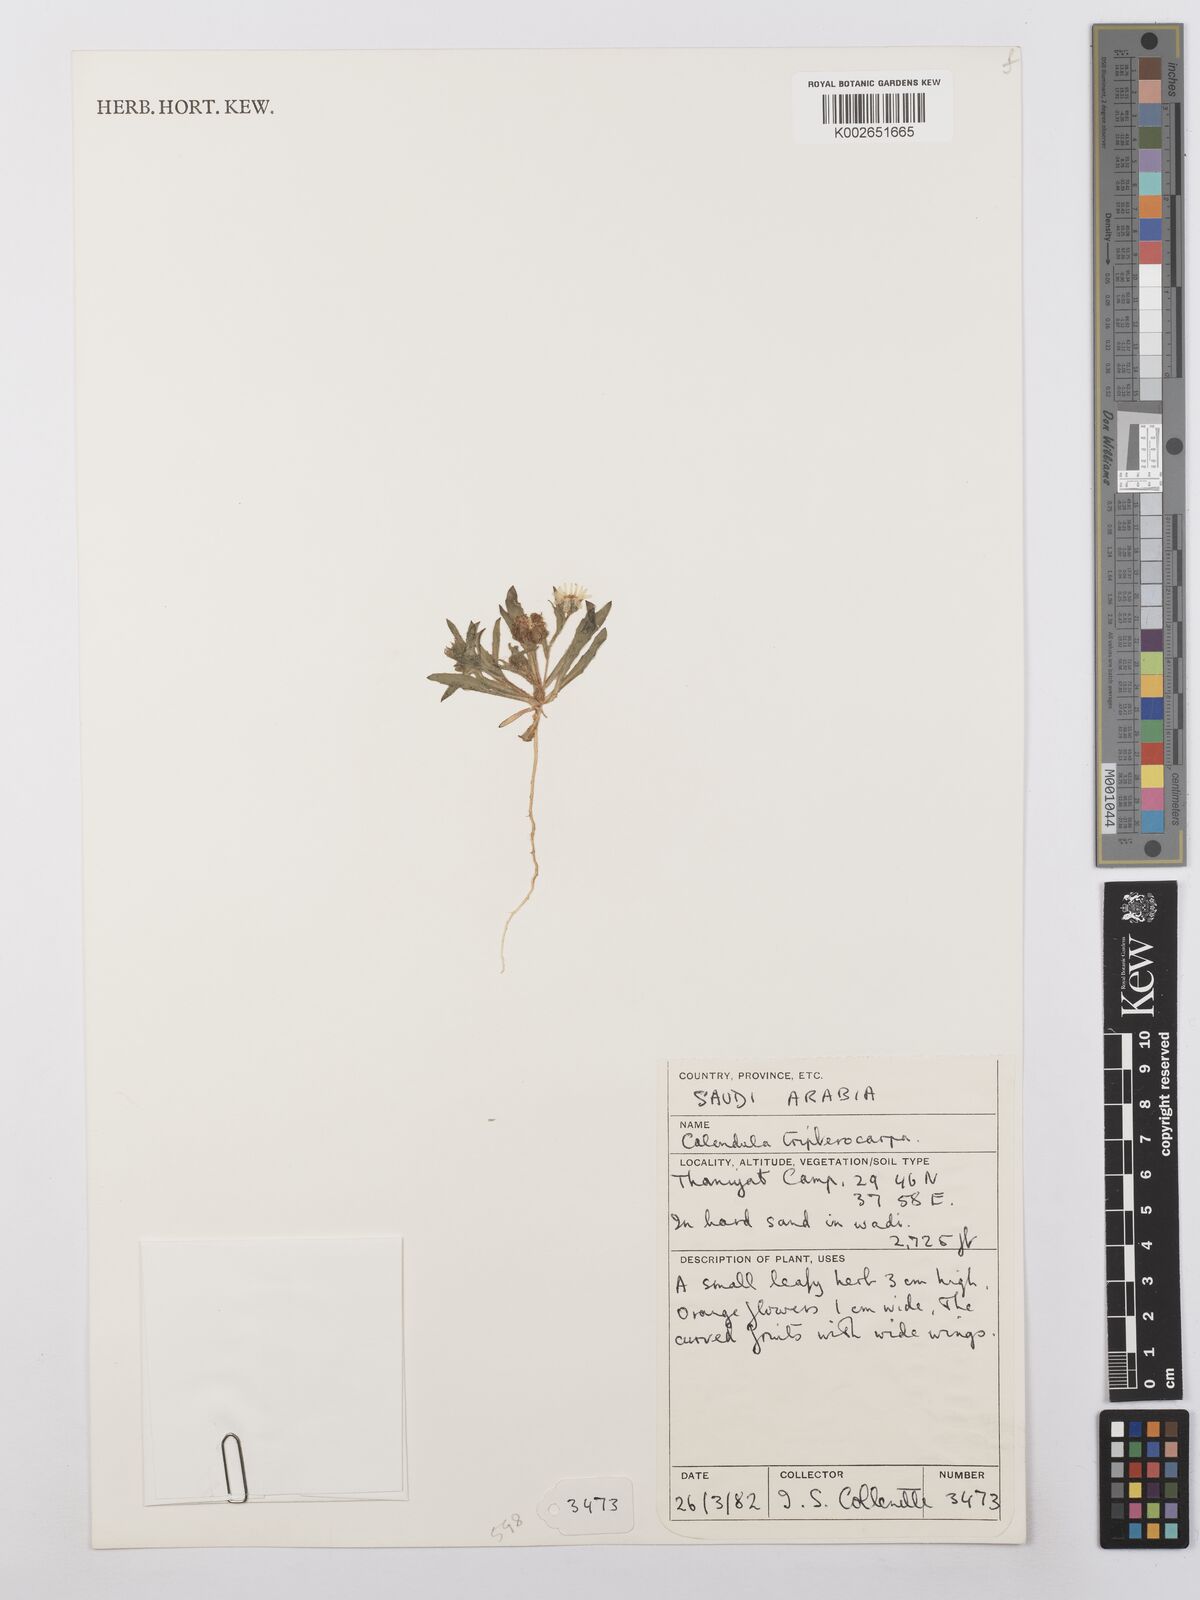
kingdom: Plantae
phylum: Tracheophyta
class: Magnoliopsida
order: Asterales
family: Asteraceae
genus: Calendula
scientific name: Calendula tripterocarpa
